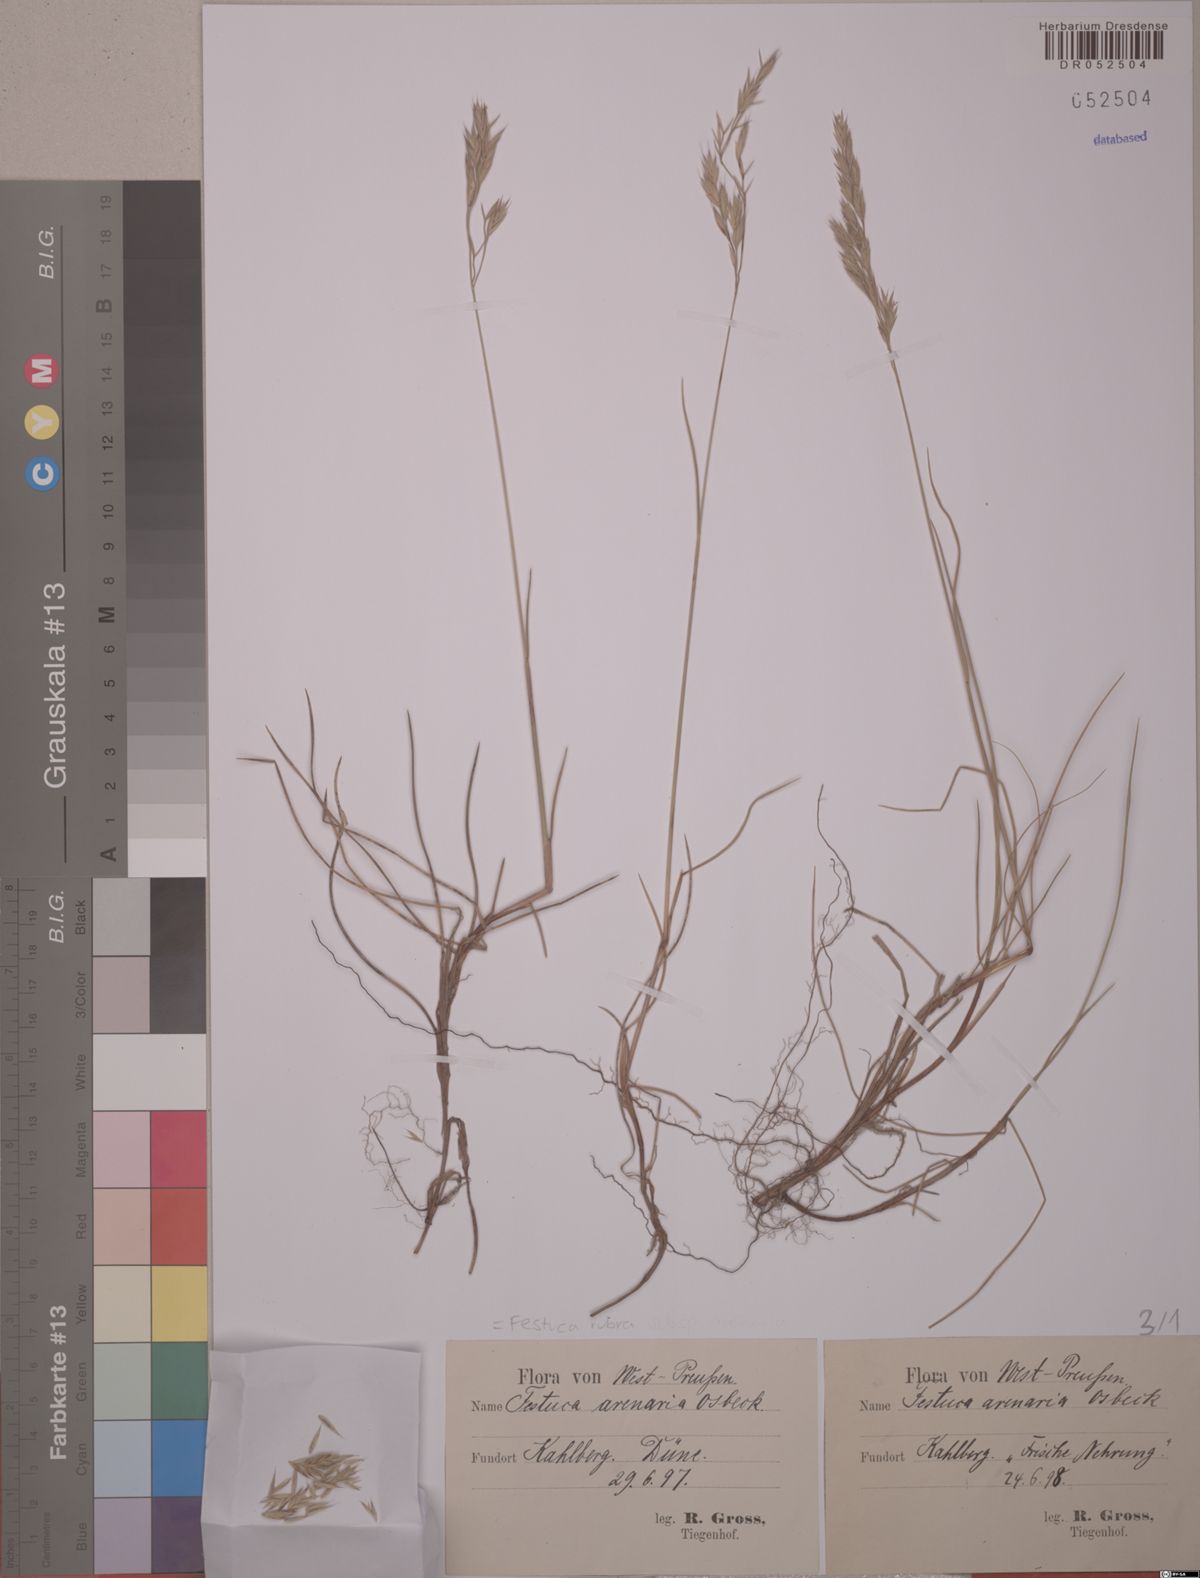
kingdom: Plantae
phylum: Tracheophyta
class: Liliopsida
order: Poales
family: Poaceae
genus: Festuca
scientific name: Festuca rubra
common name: Red fescue
